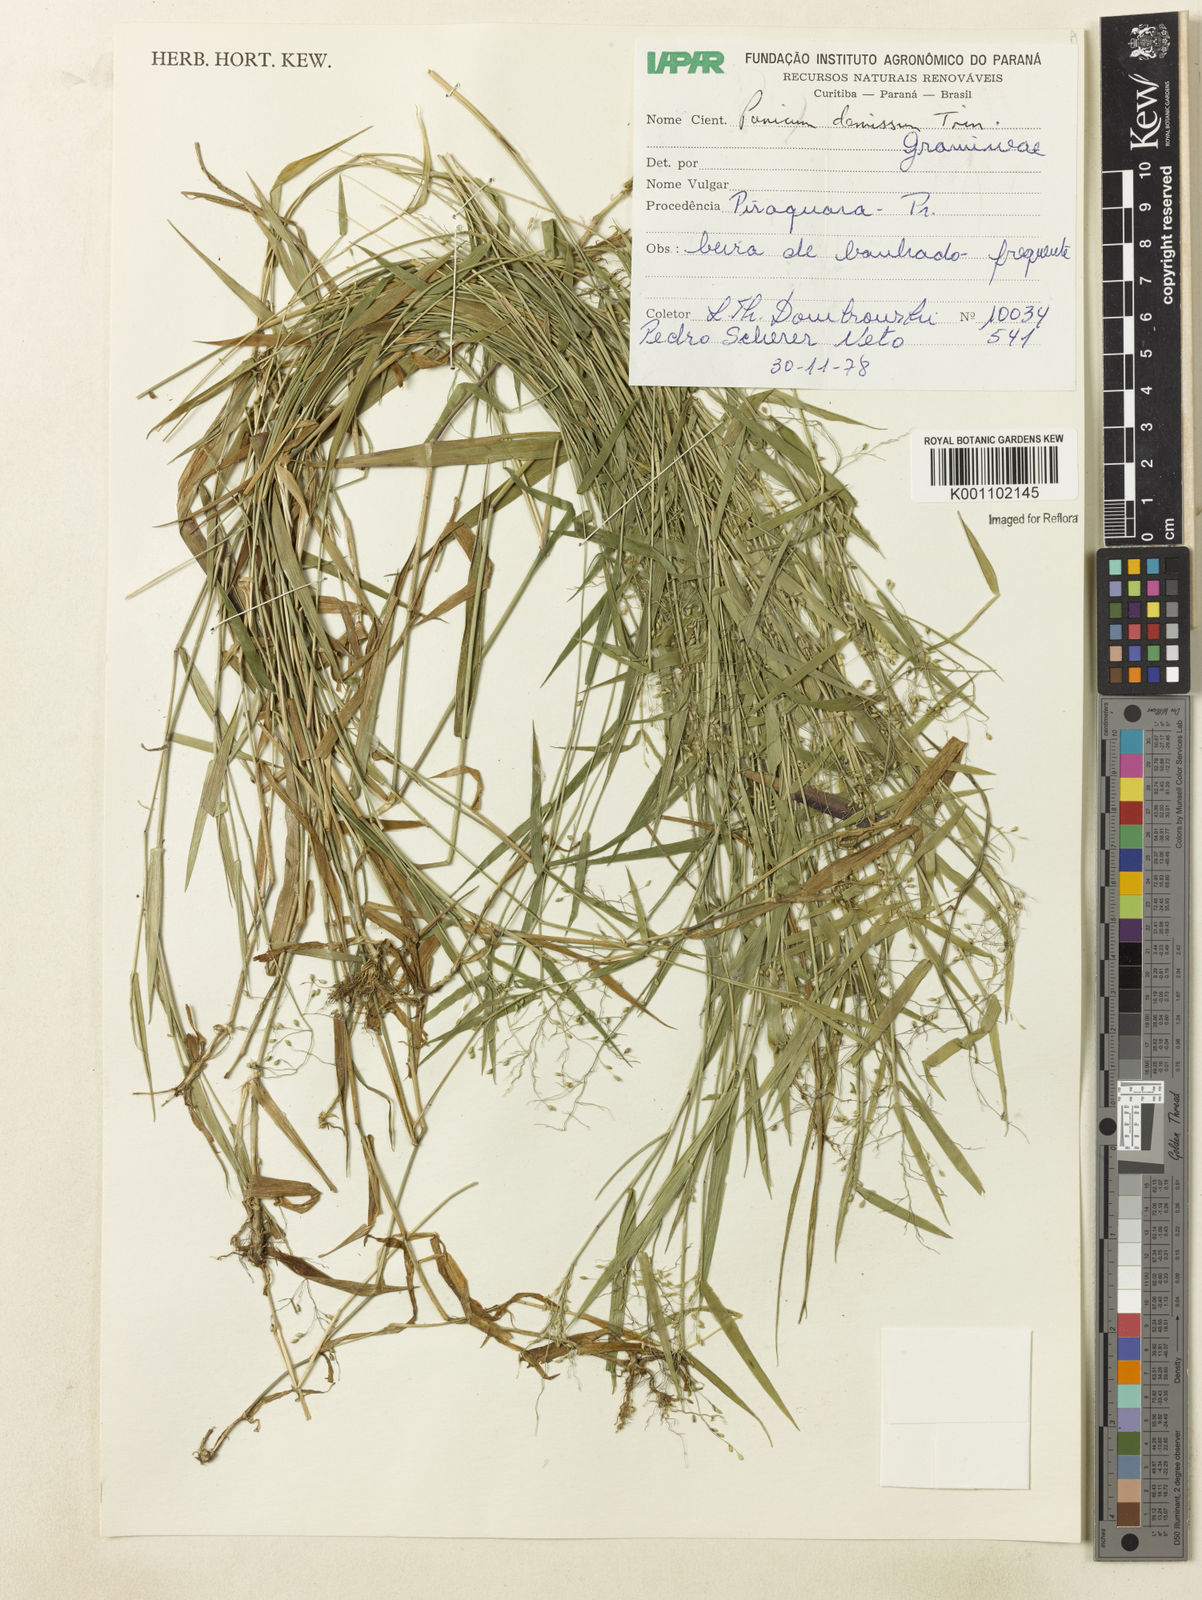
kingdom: Plantae
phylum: Tracheophyta
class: Liliopsida
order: Poales
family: Poaceae
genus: Dichanthelium
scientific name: Dichanthelium stigmosum
